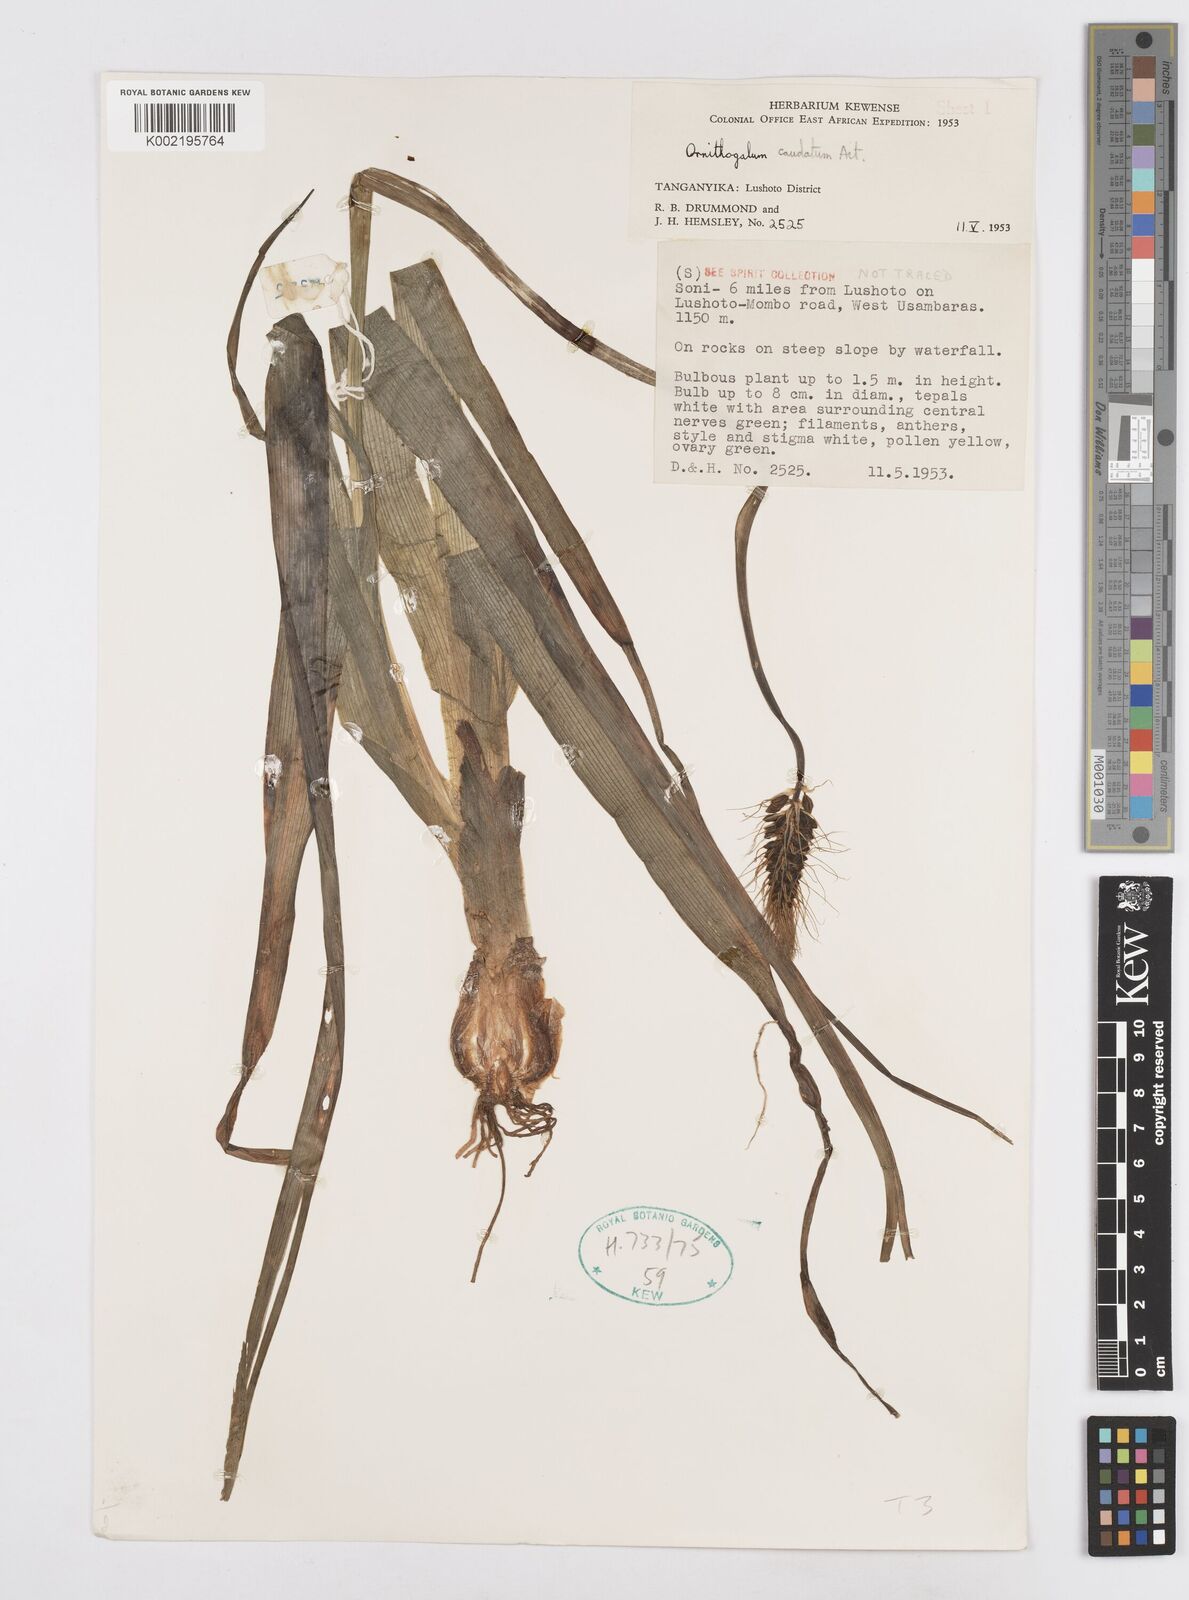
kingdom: Plantae
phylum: Tracheophyta
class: Liliopsida
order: Asparagales
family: Asparagaceae
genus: Albuca
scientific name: Albuca virens
